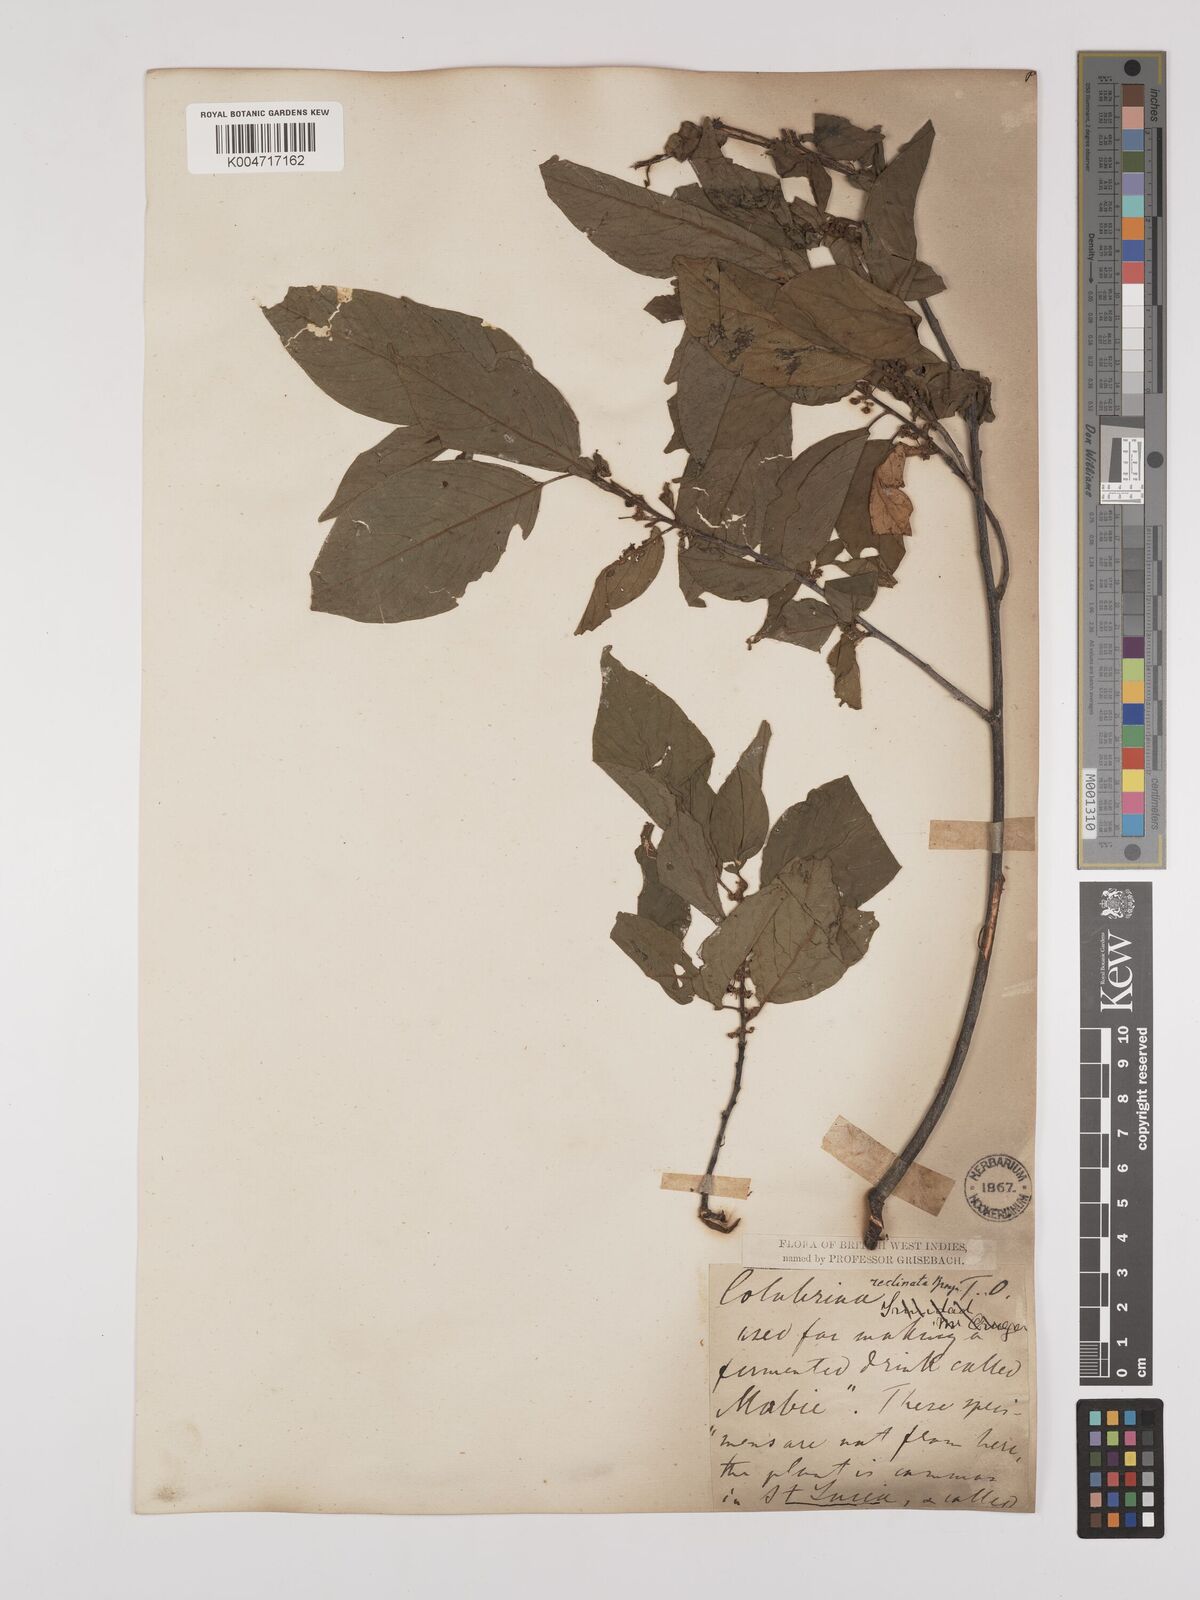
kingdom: Plantae
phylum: Tracheophyta
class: Magnoliopsida
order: Rosales
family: Rhamnaceae
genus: Colubrina
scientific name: Colubrina elliptica
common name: Soldierwood
